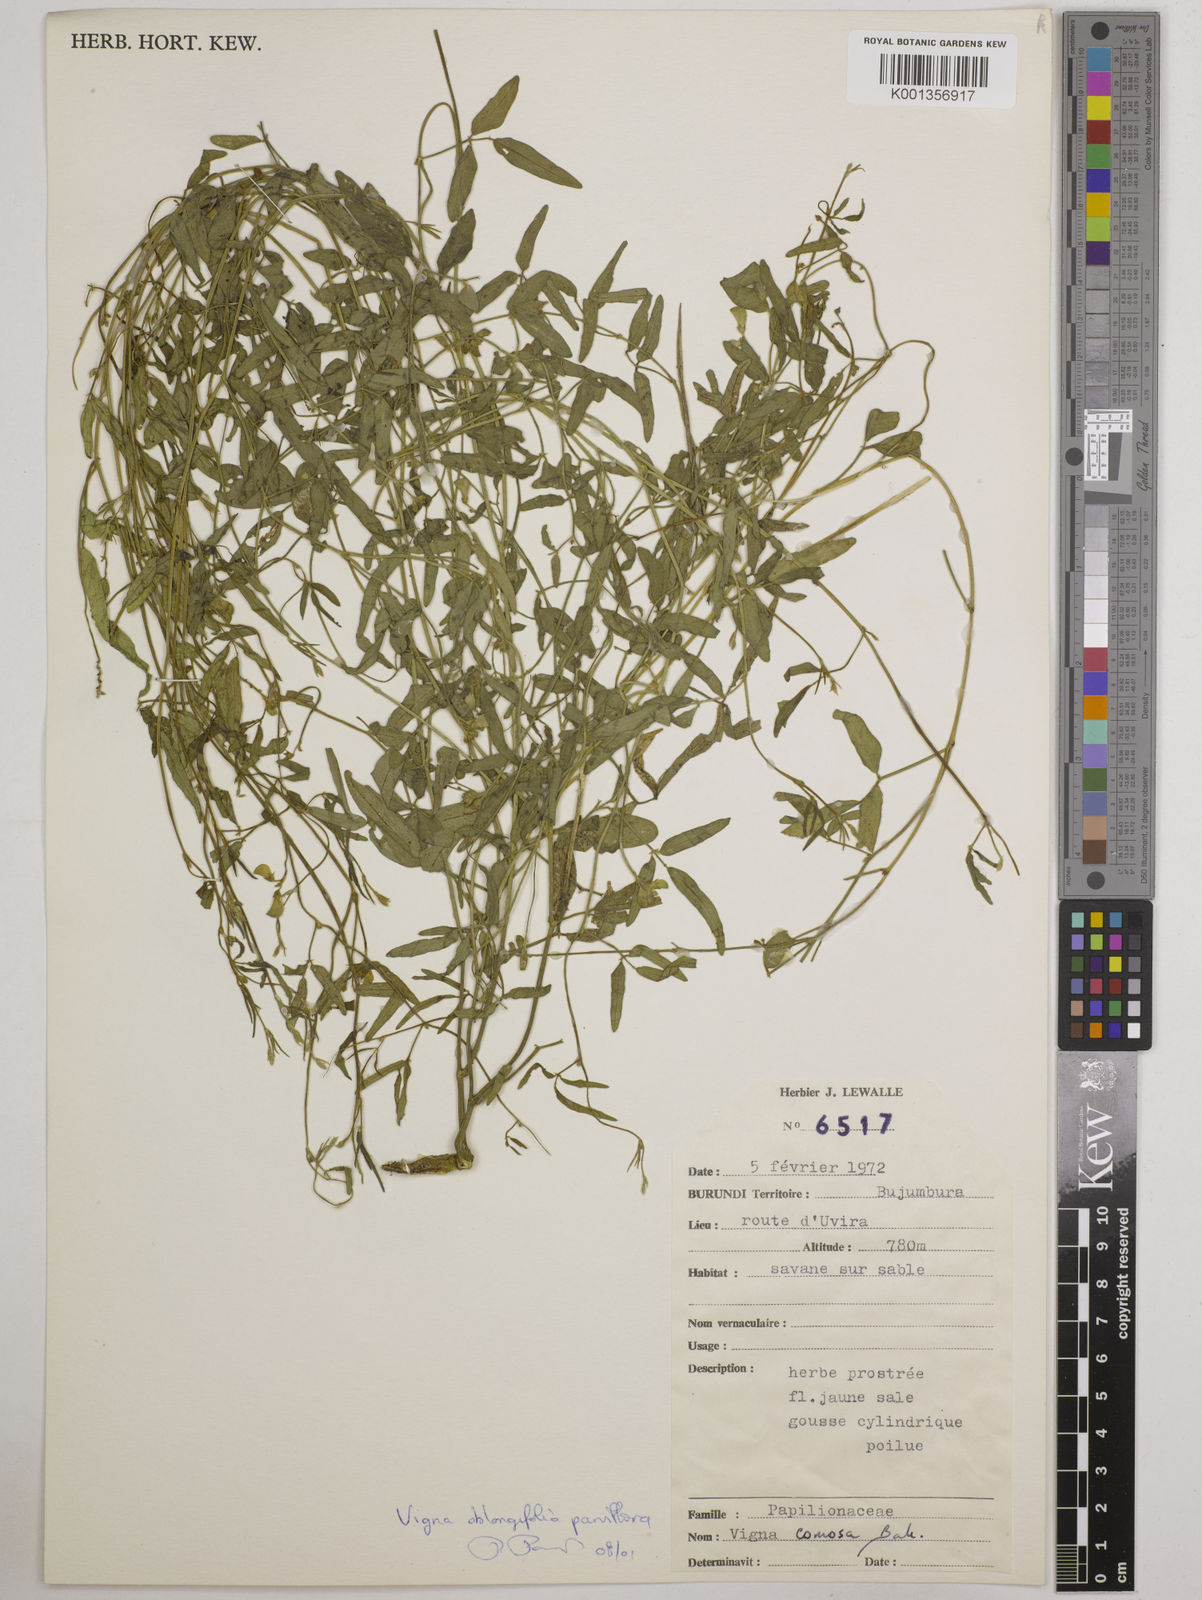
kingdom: Plantae
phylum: Tracheophyta
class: Magnoliopsida
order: Fabales
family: Fabaceae
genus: Vigna
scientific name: Vigna
